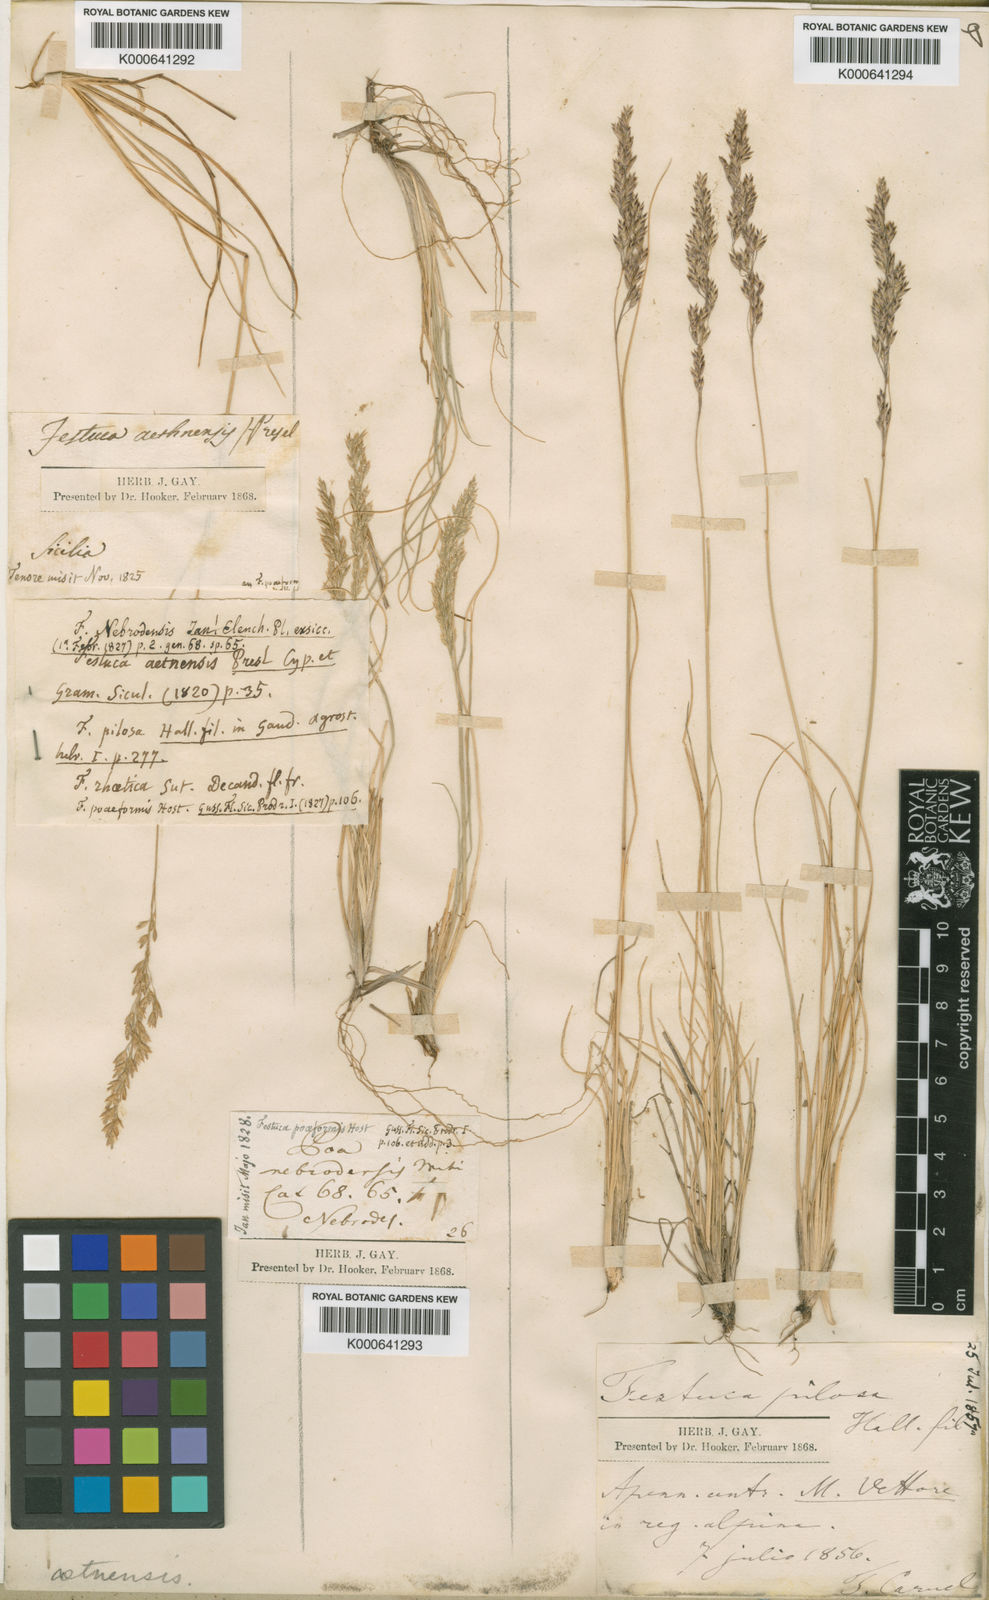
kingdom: Plantae
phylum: Tracheophyta
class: Liliopsida
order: Poales
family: Poaceae
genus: Bellardiochloa
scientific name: Bellardiochloa variegata
